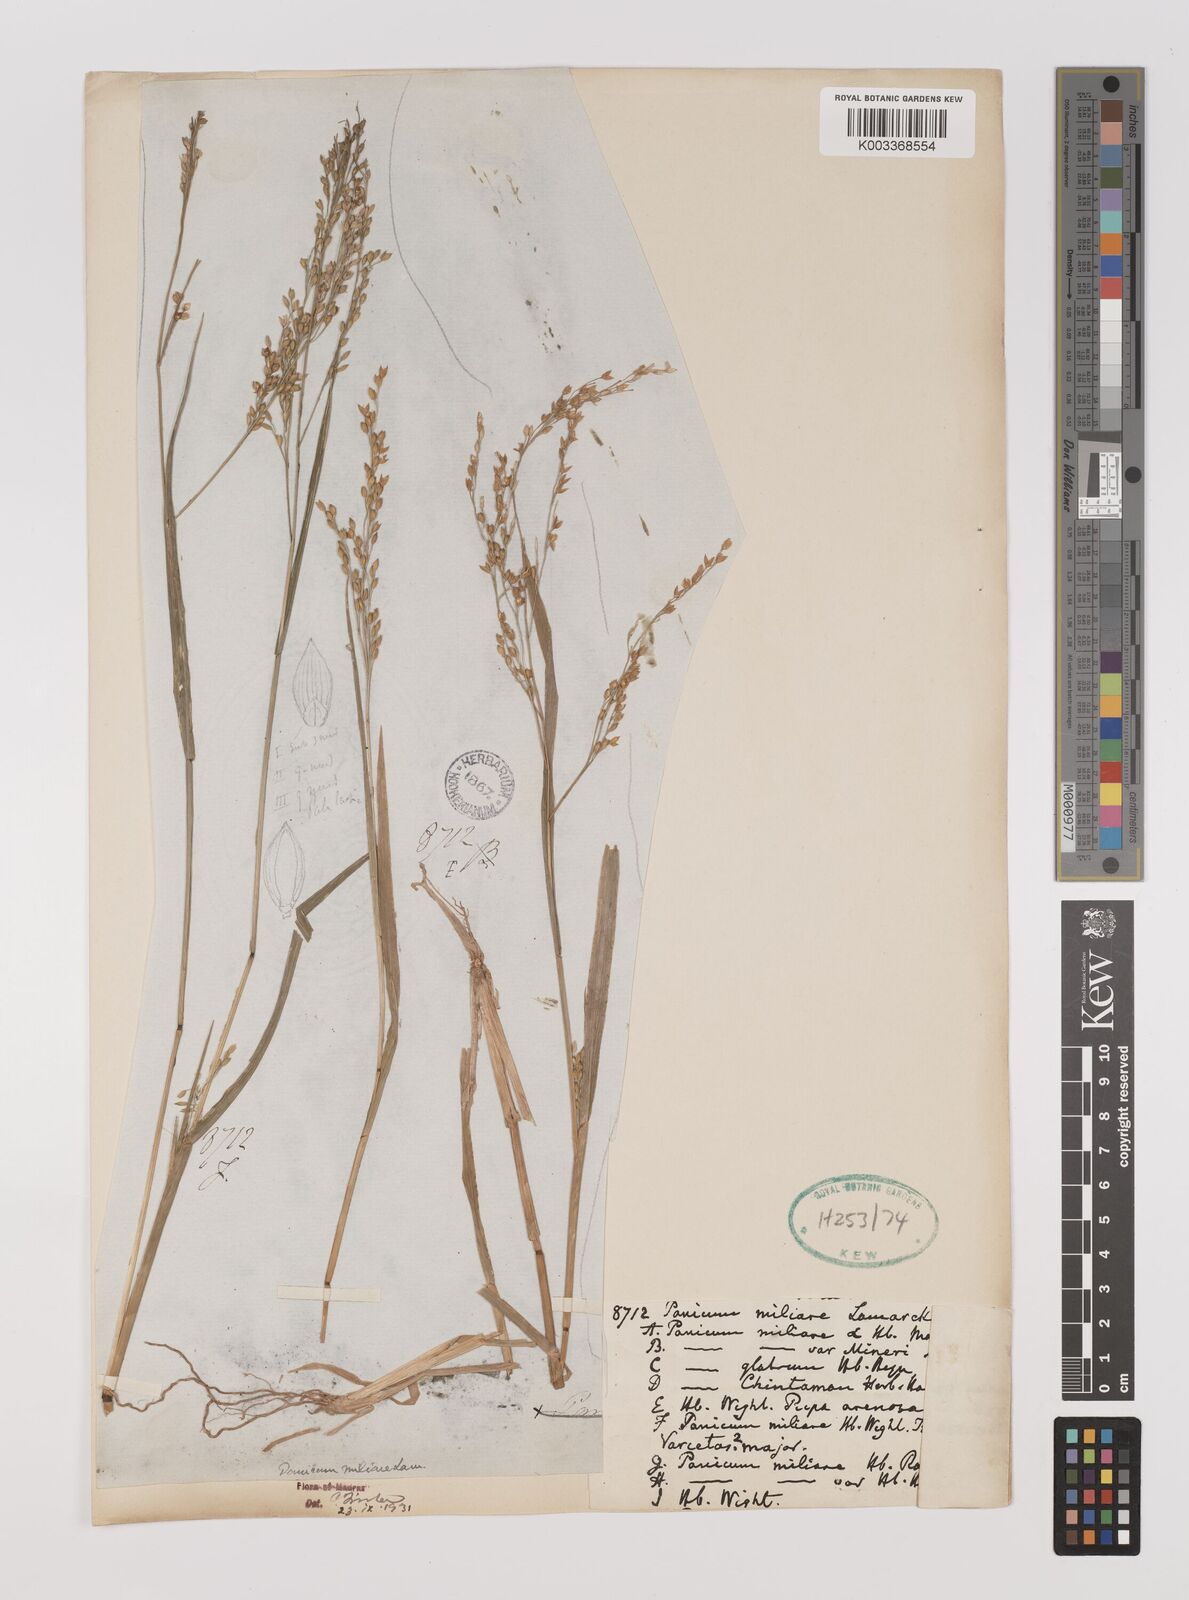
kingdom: Plantae
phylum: Tracheophyta
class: Liliopsida
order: Poales
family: Poaceae
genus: Panicum
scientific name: Panicum sumatrense
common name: Little millet
